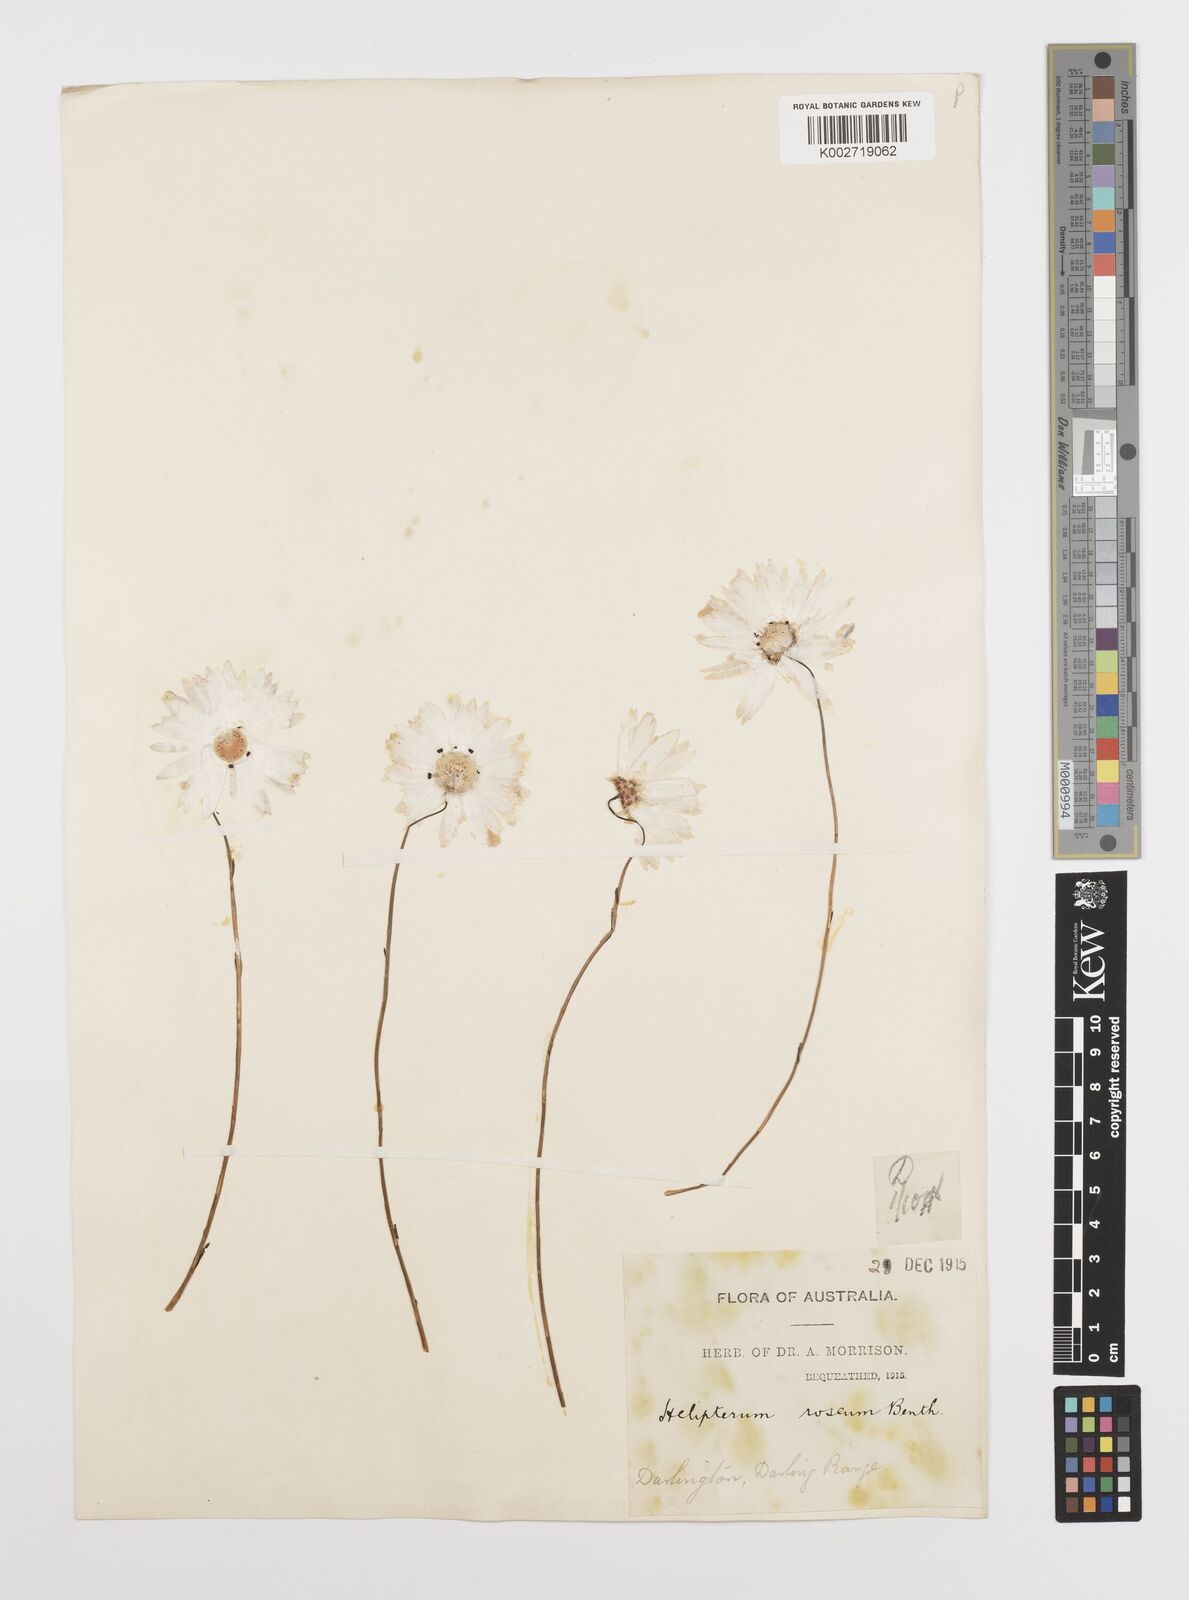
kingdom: Plantae
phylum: Tracheophyta
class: Magnoliopsida
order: Asterales
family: Asteraceae
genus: Rhodanthe
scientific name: Rhodanthe chlorocephala
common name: Rosy sunray
